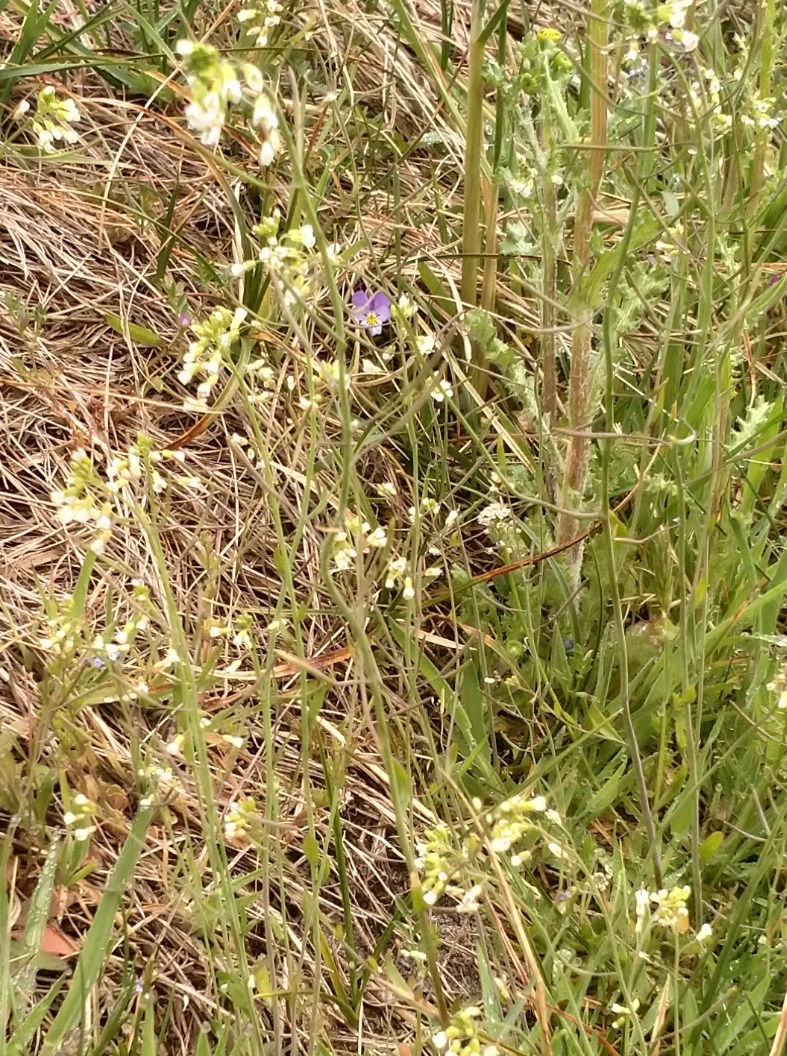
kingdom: Plantae
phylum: Tracheophyta
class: Magnoliopsida
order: Brassicales
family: Brassicaceae
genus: Arabidopsis
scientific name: Arabidopsis thaliana
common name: Almindelig gåsemad
